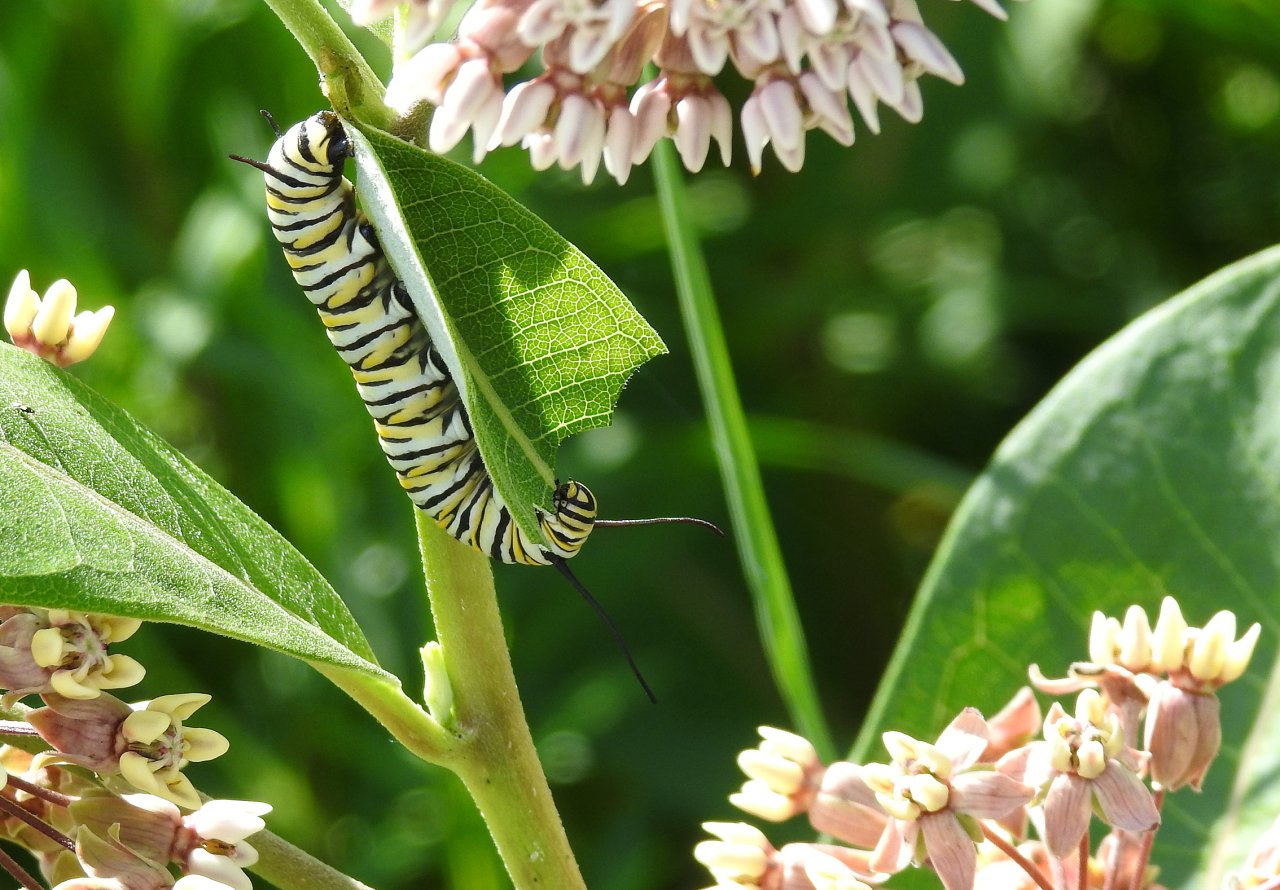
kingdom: Animalia
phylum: Arthropoda
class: Insecta
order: Lepidoptera
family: Nymphalidae
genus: Danaus
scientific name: Danaus plexippus
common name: Monarch
